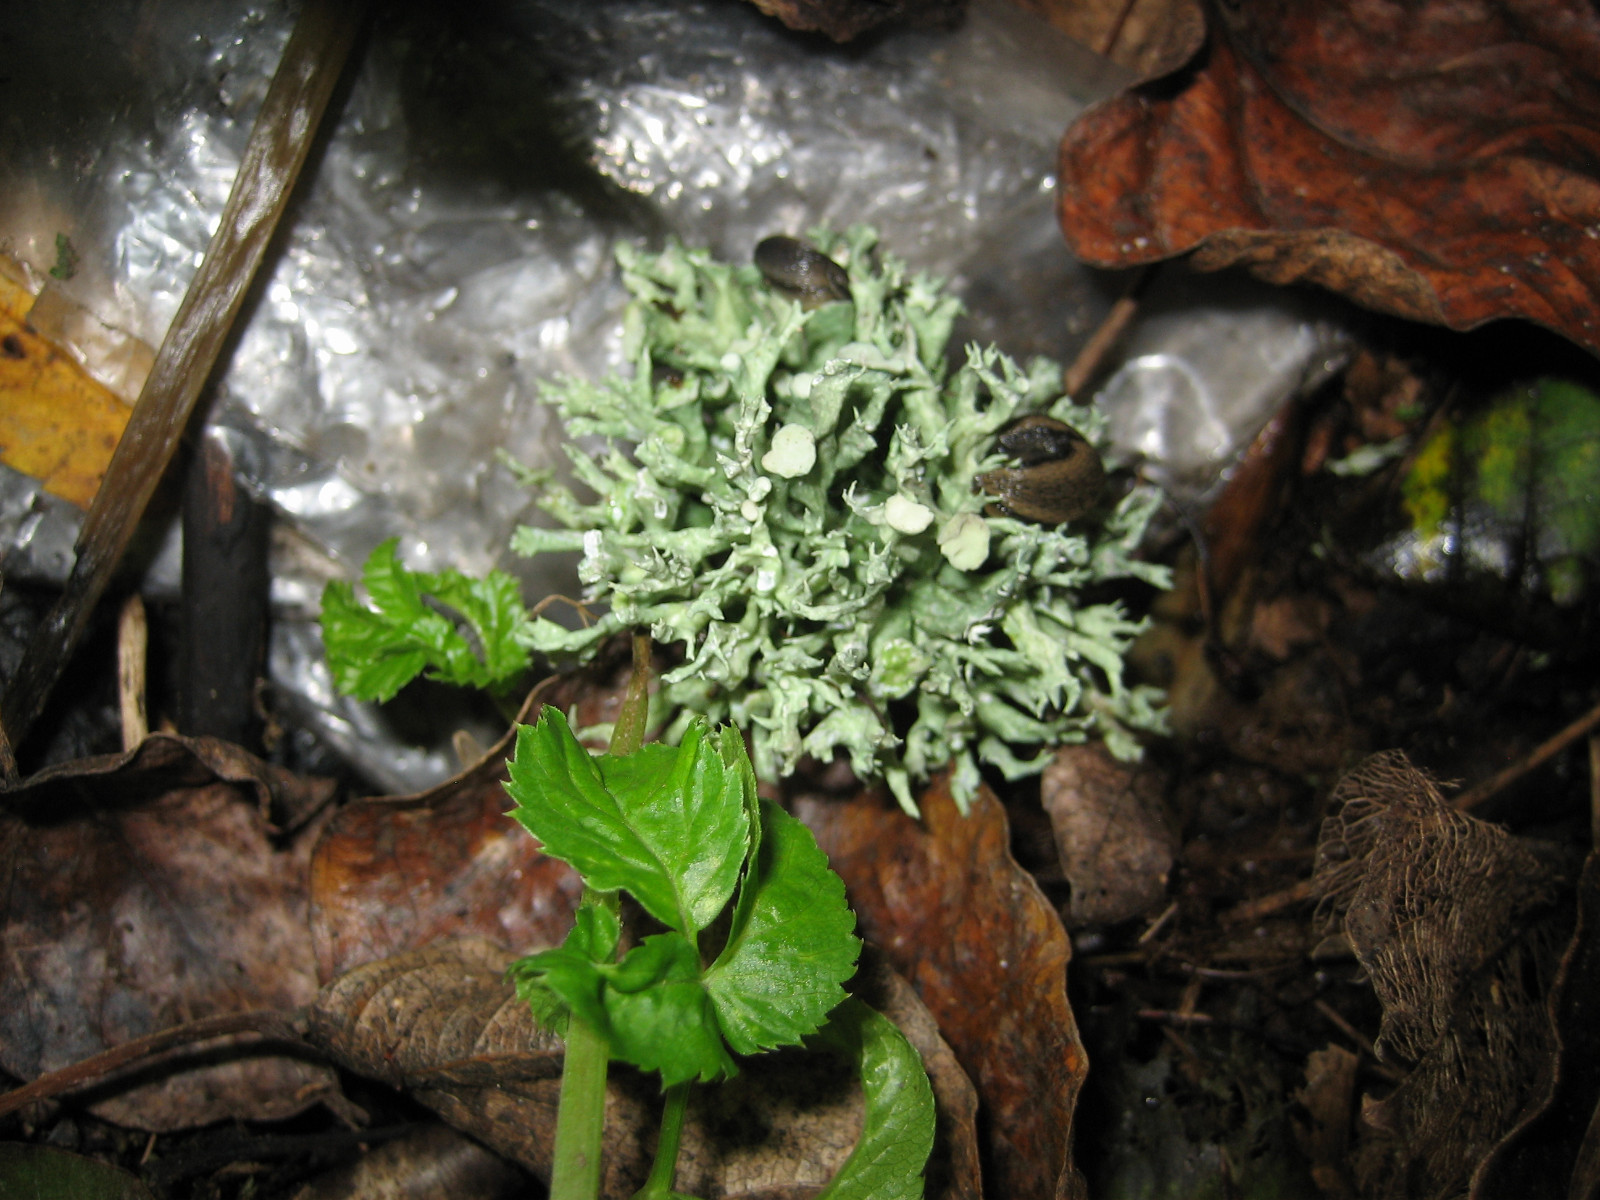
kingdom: Fungi
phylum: Ascomycota
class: Lecanoromycetes
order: Lecanorales
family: Ramalinaceae
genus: Ramalina
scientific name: Ramalina fastigiata
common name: tue-grenlav
